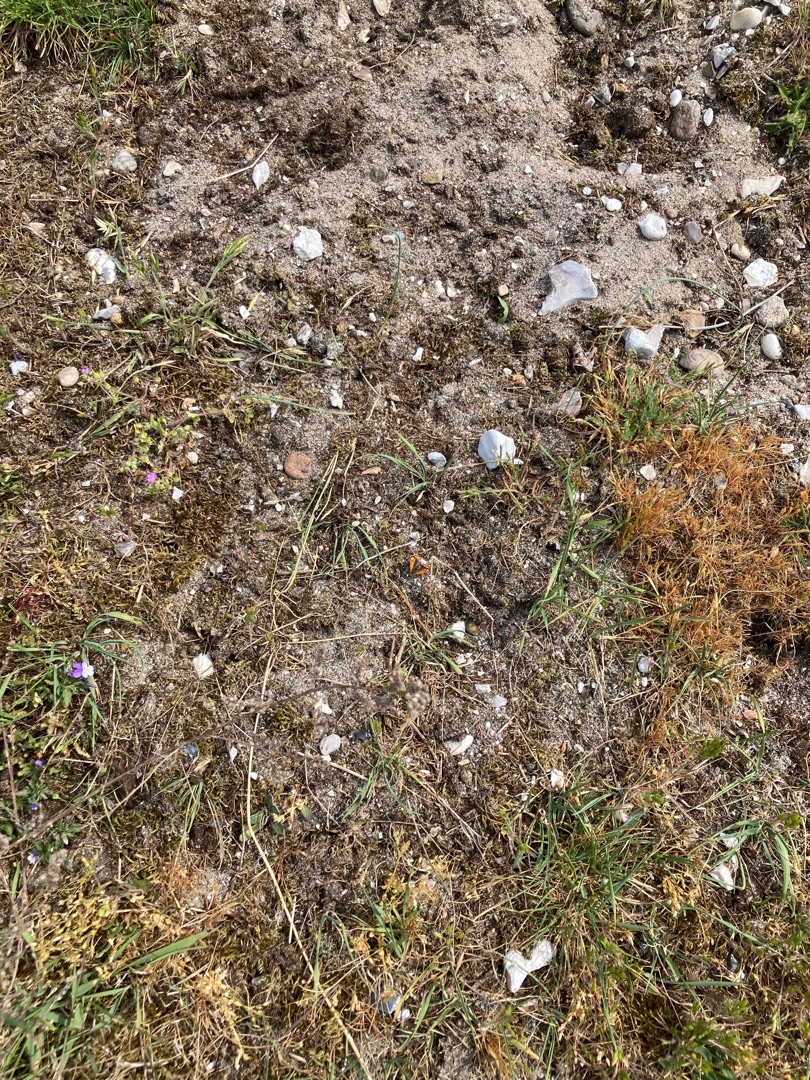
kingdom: Animalia
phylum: Arthropoda
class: Insecta
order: Lepidoptera
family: Lycaenidae
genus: Lycaena
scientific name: Lycaena phlaeas
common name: Lille ildfugl
